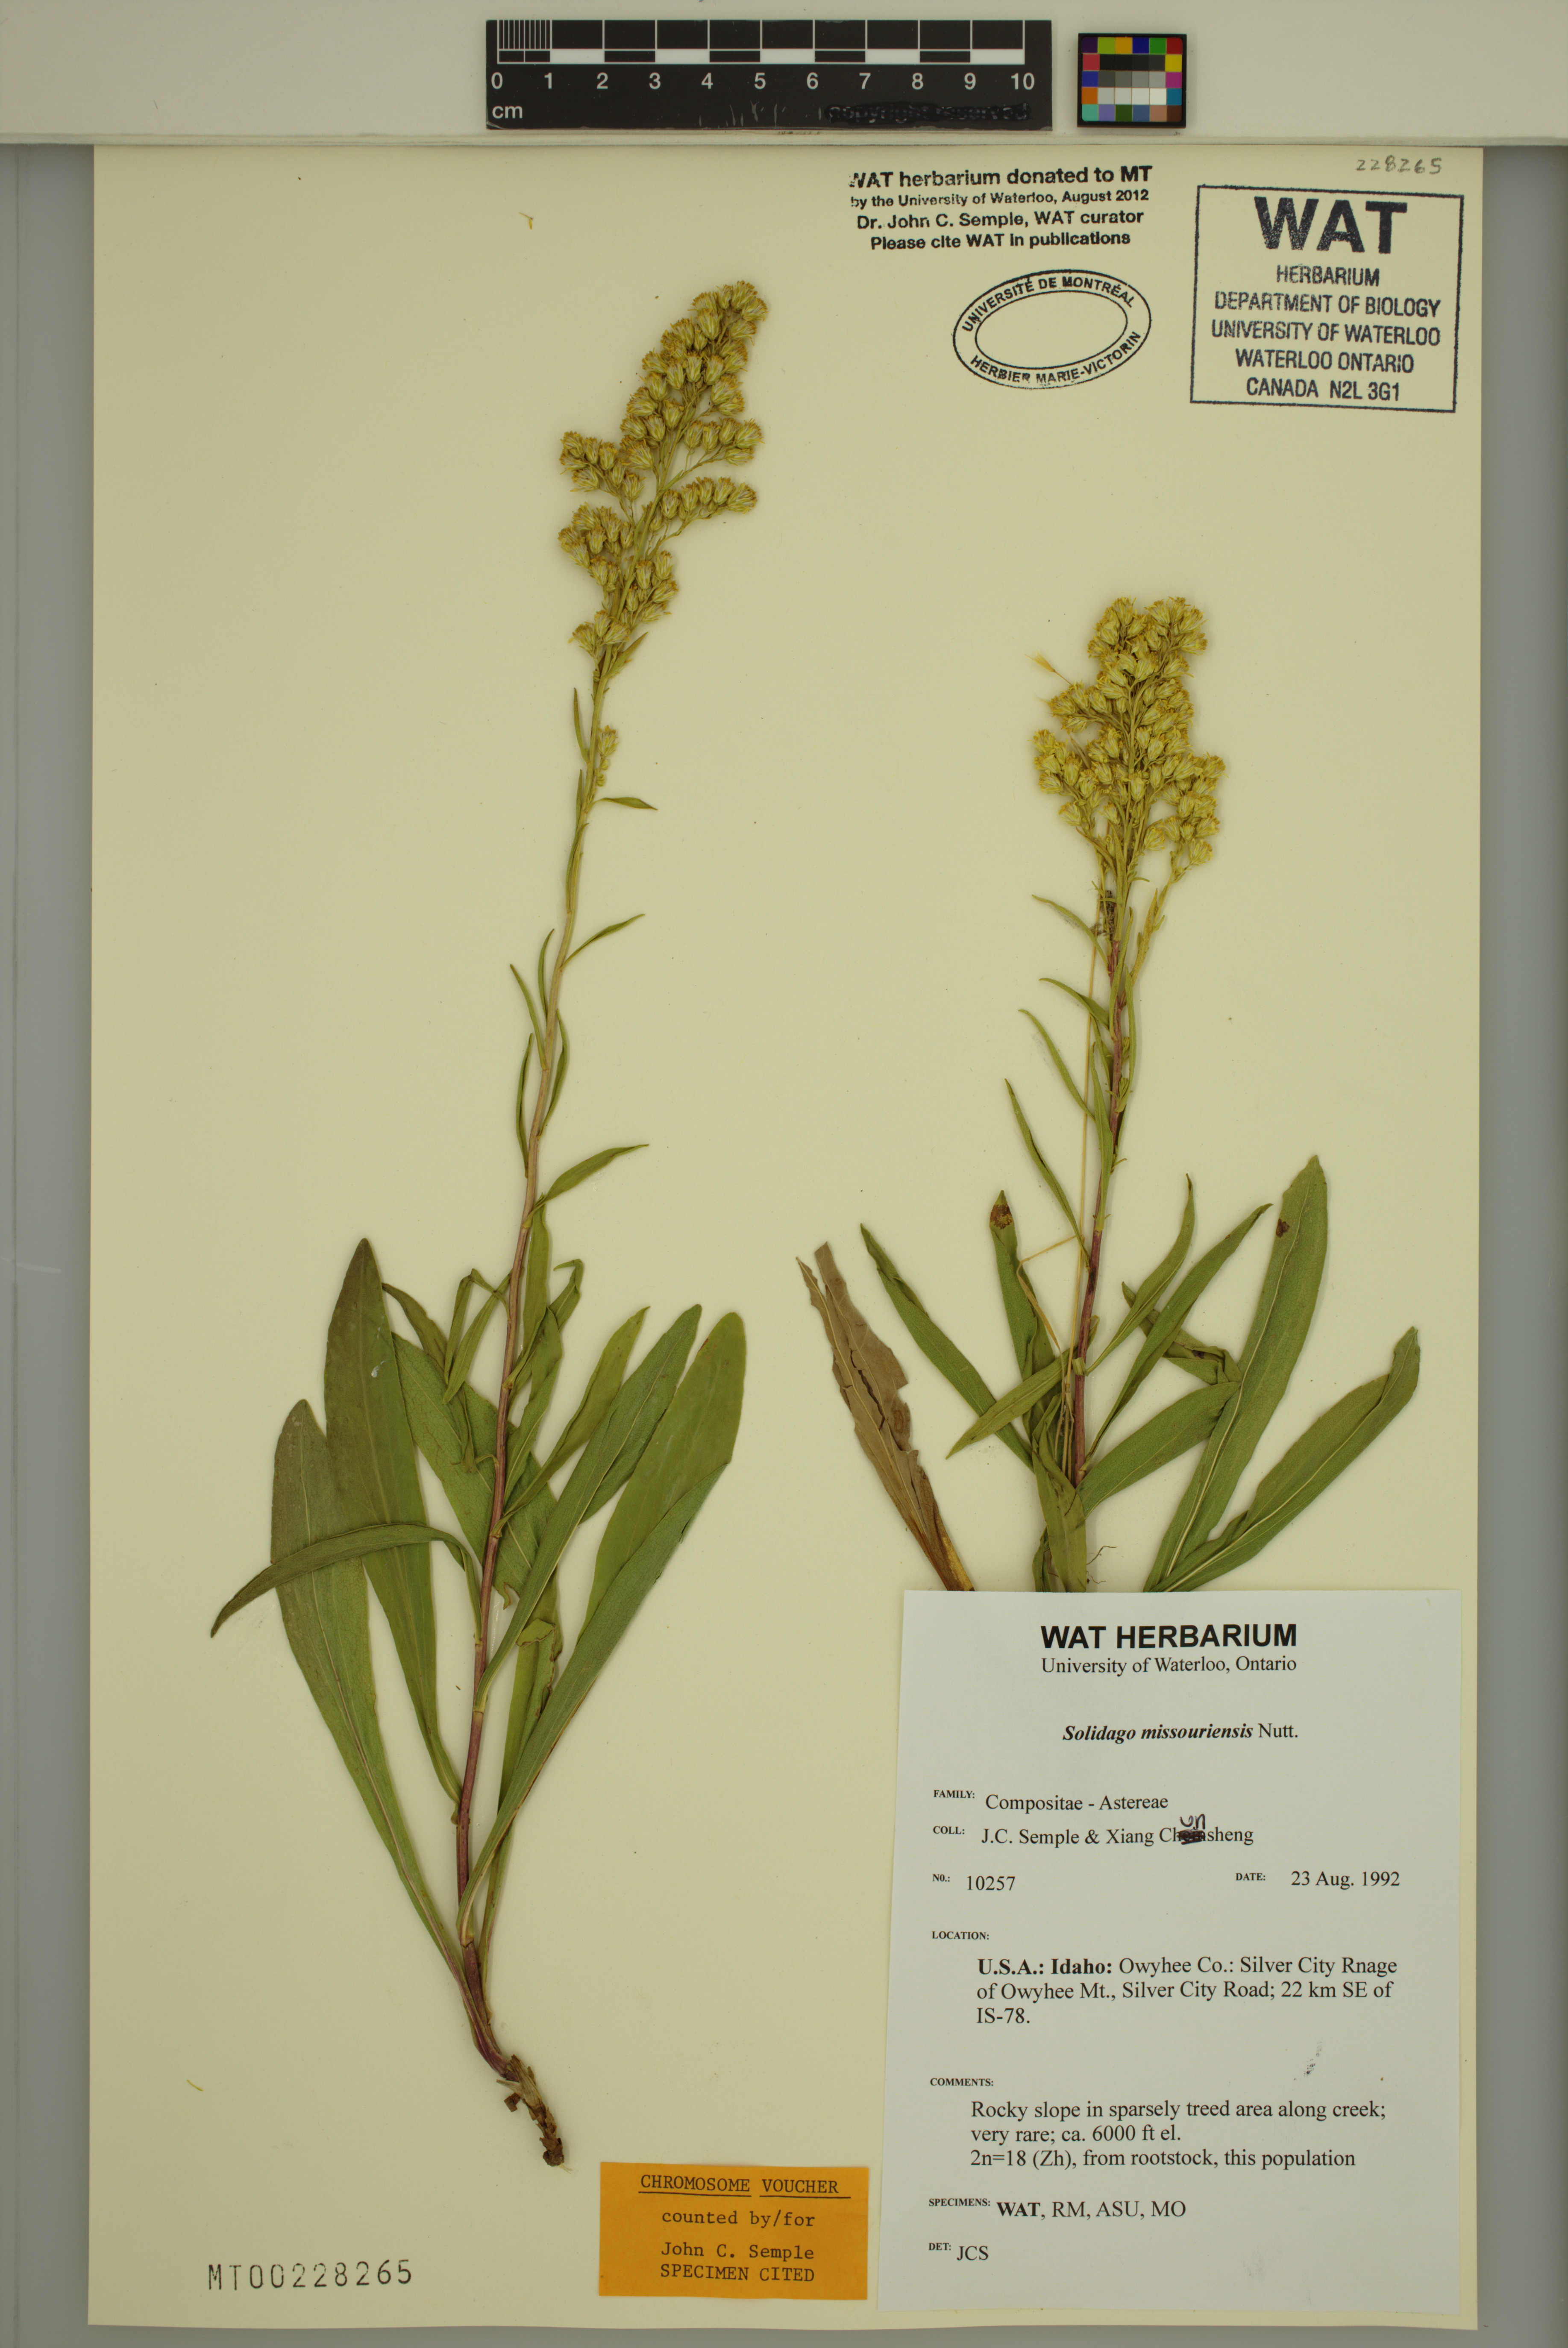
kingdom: Plantae
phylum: Tracheophyta
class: Magnoliopsida
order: Asterales
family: Asteraceae
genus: Solidago
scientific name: Solidago missouriensis
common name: Prairie goldenrod
